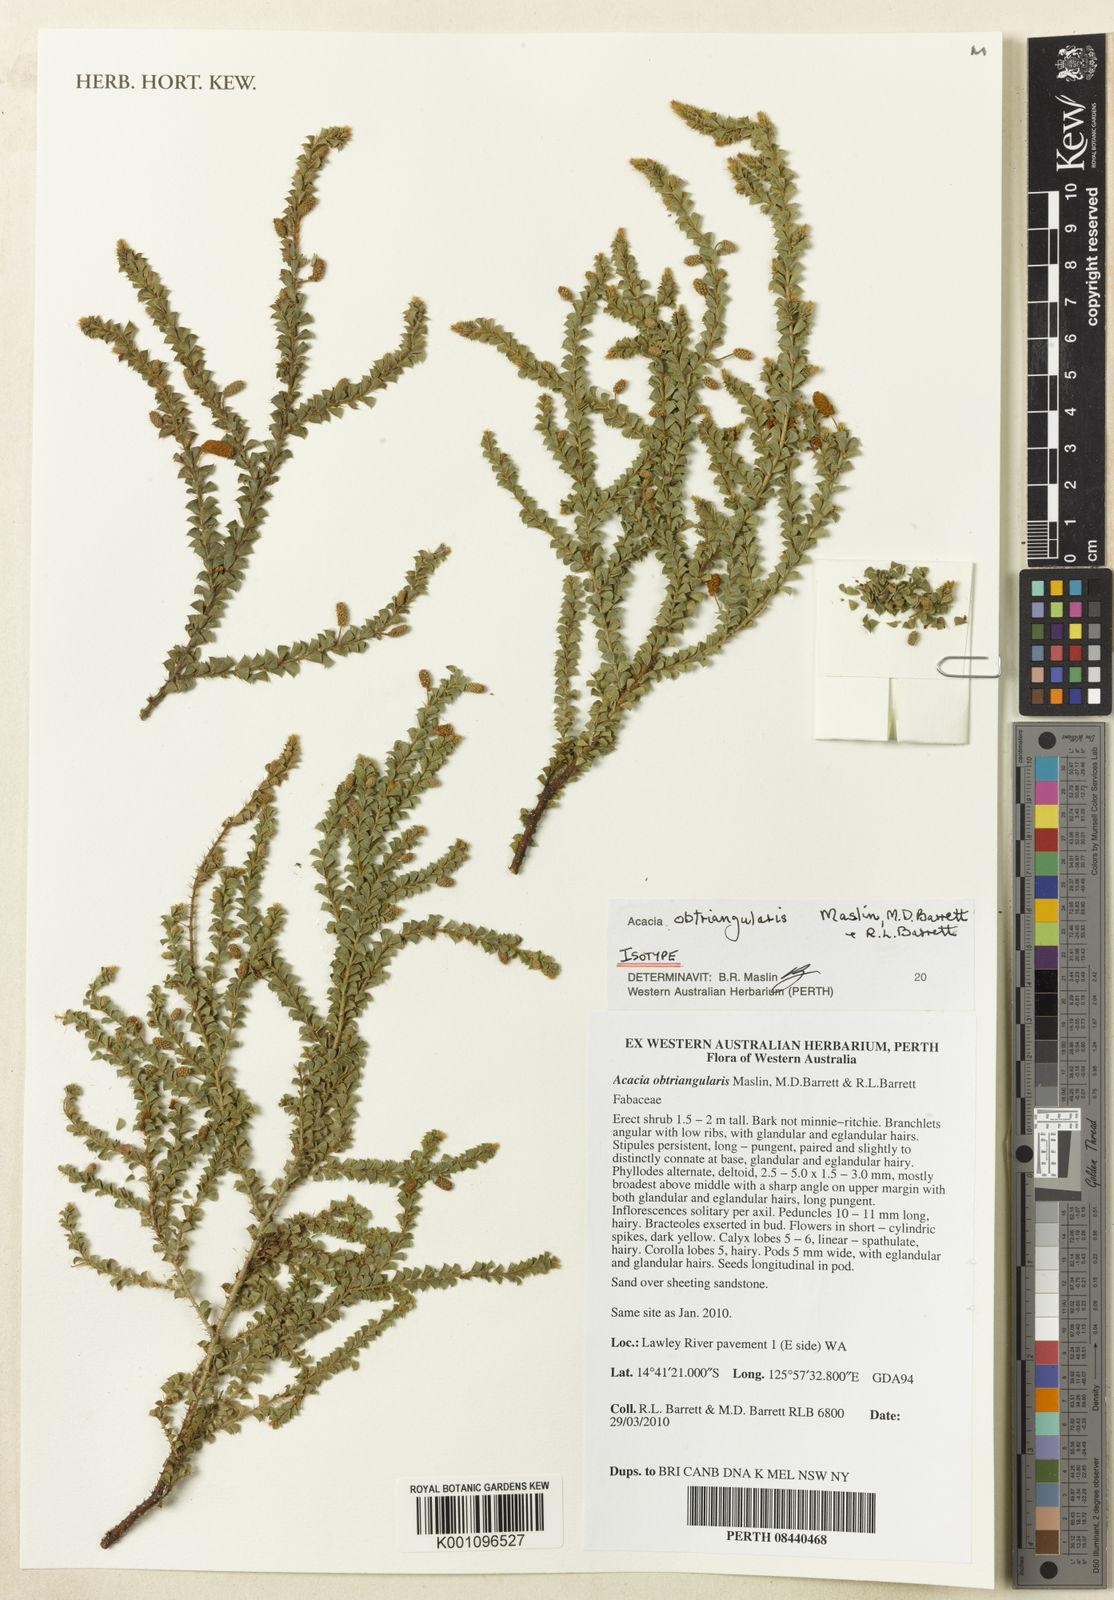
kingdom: Plantae
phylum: Tracheophyta
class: Magnoliopsida
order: Fabales
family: Fabaceae
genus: Acacia
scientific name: Acacia obtriangularis
